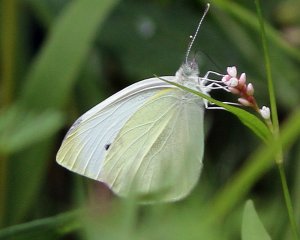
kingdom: Animalia
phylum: Arthropoda
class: Insecta
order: Lepidoptera
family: Pieridae
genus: Pieris
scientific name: Pieris rapae
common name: Cabbage White
